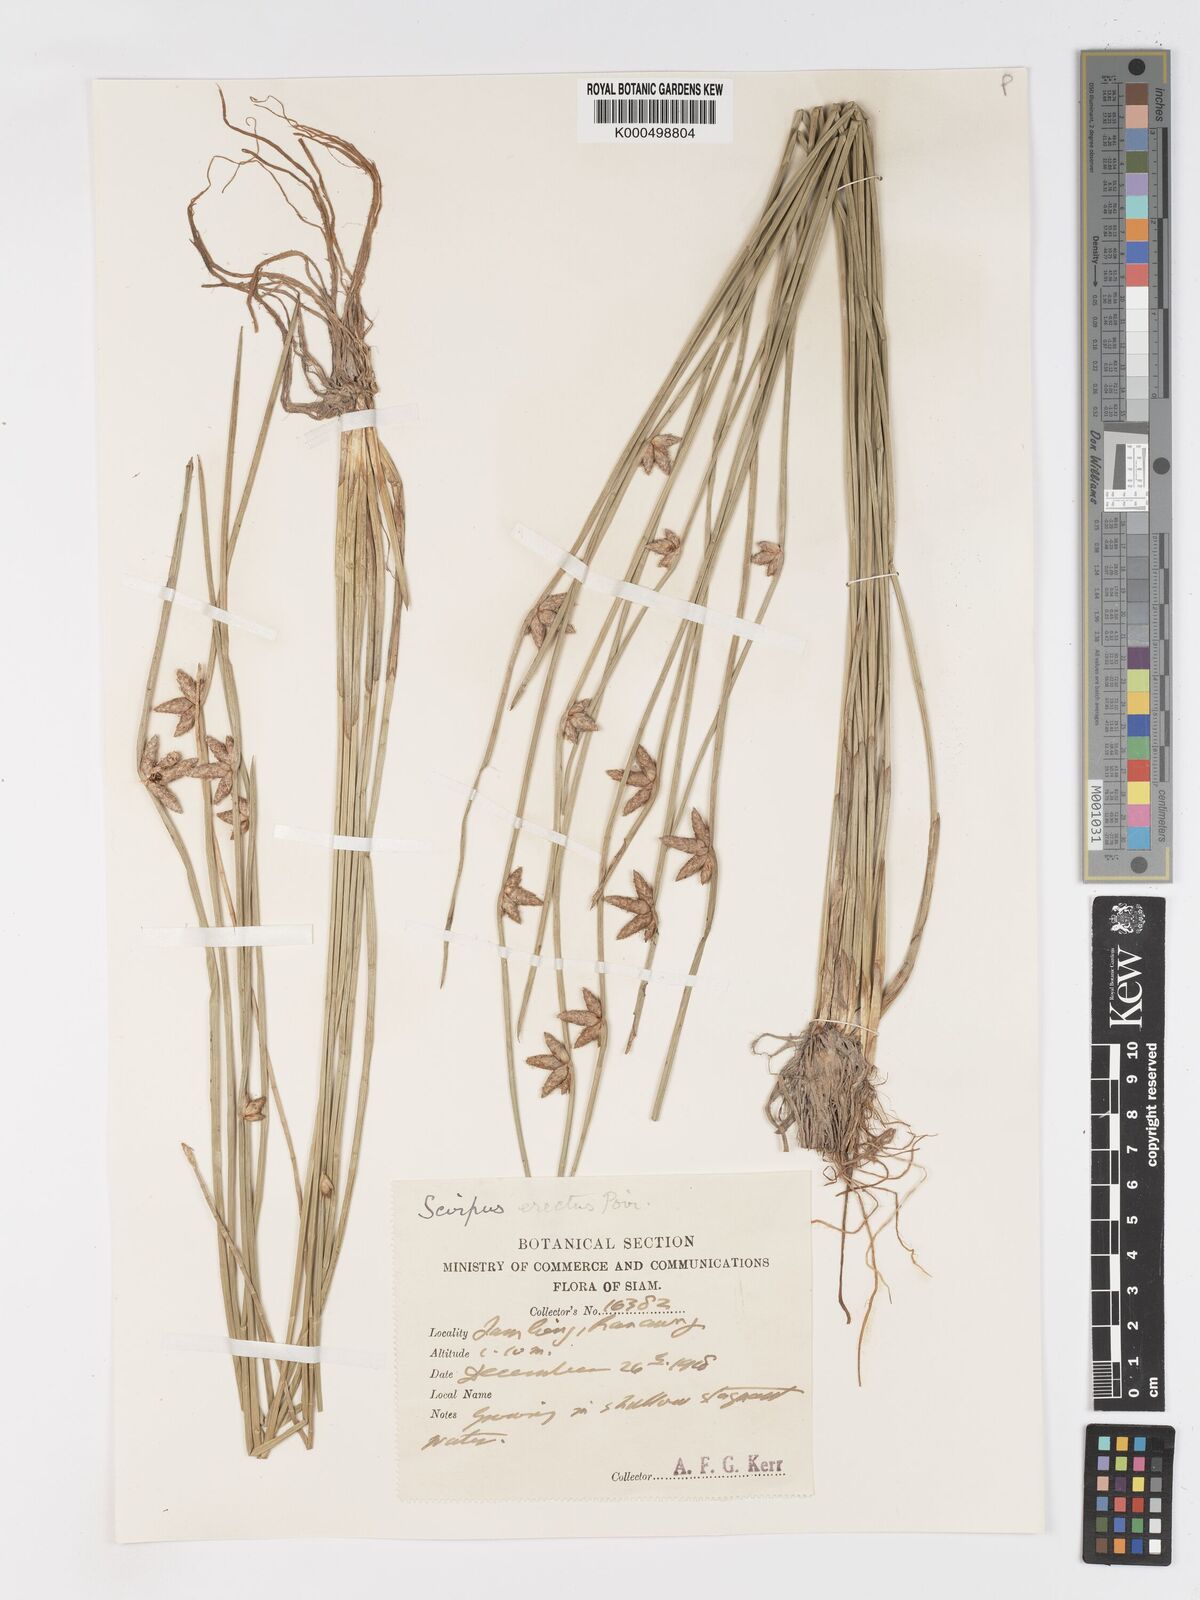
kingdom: Plantae
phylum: Tracheophyta
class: Liliopsida
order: Poales
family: Cyperaceae
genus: Schoenoplectiella
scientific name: Schoenoplectiella juncoides
